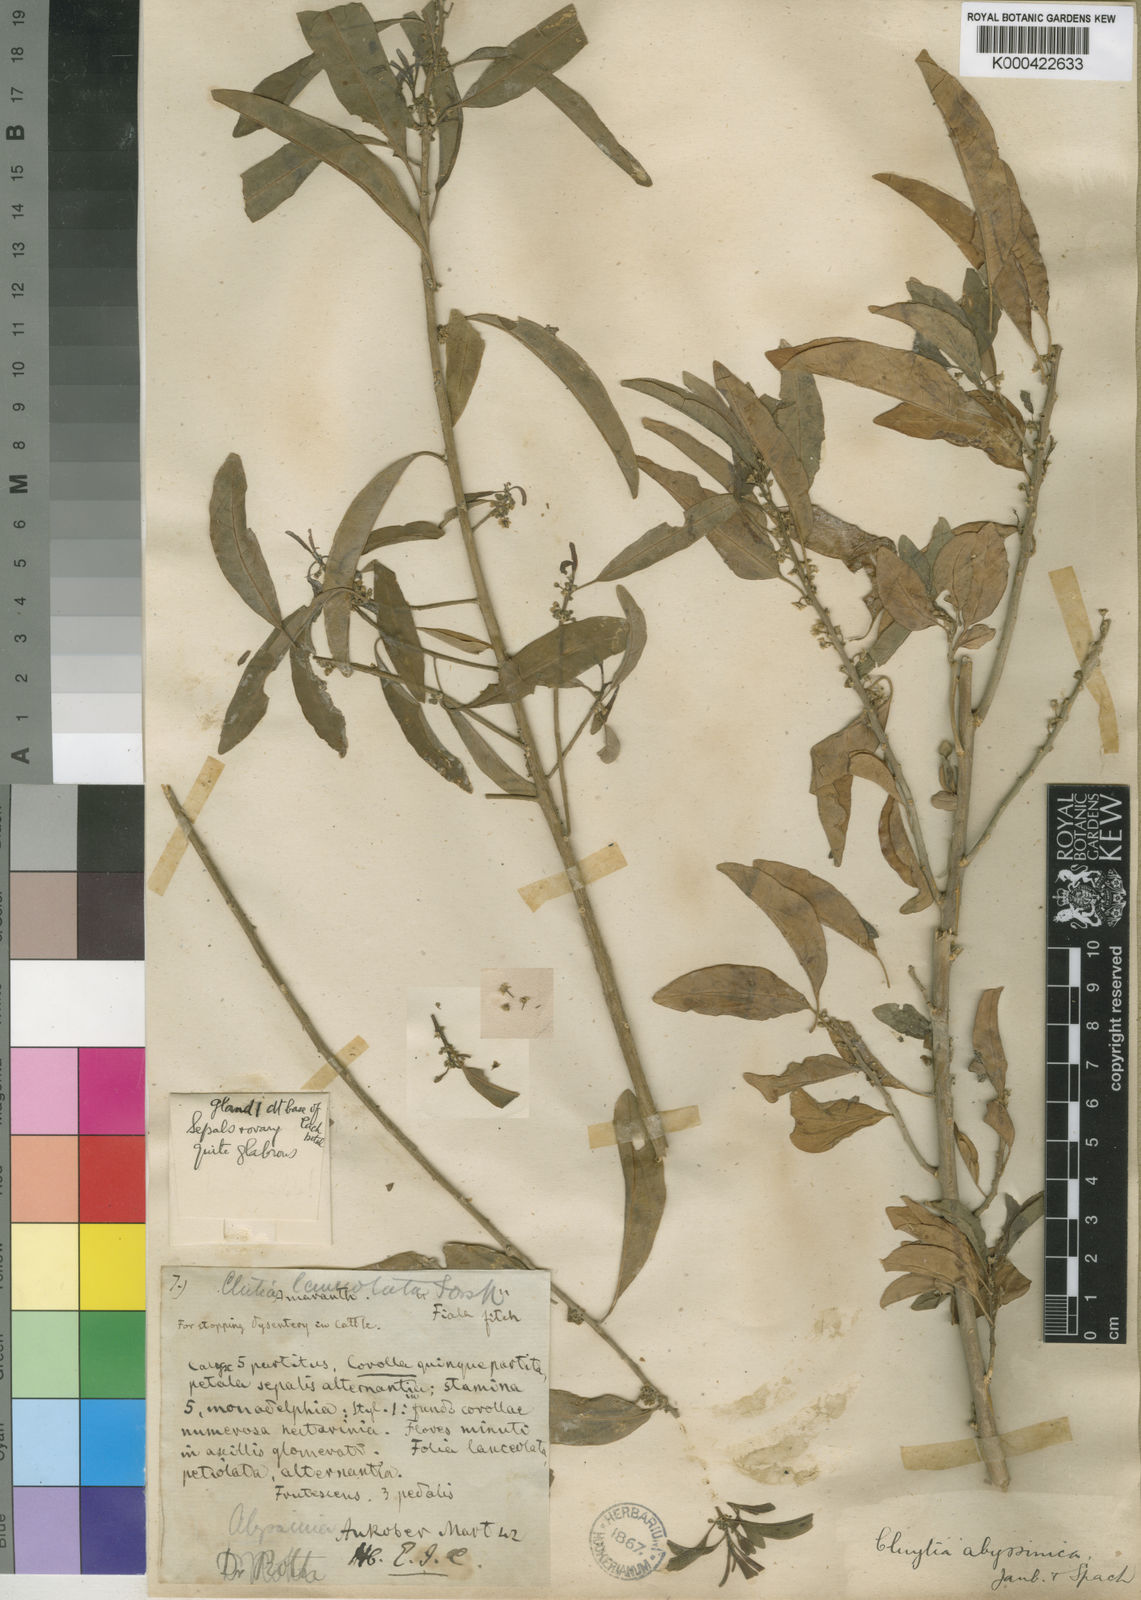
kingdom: Plantae
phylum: Tracheophyta
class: Magnoliopsida
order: Malpighiales
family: Peraceae
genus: Clutia
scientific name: Clutia abyssinica
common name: Large lightning bush
